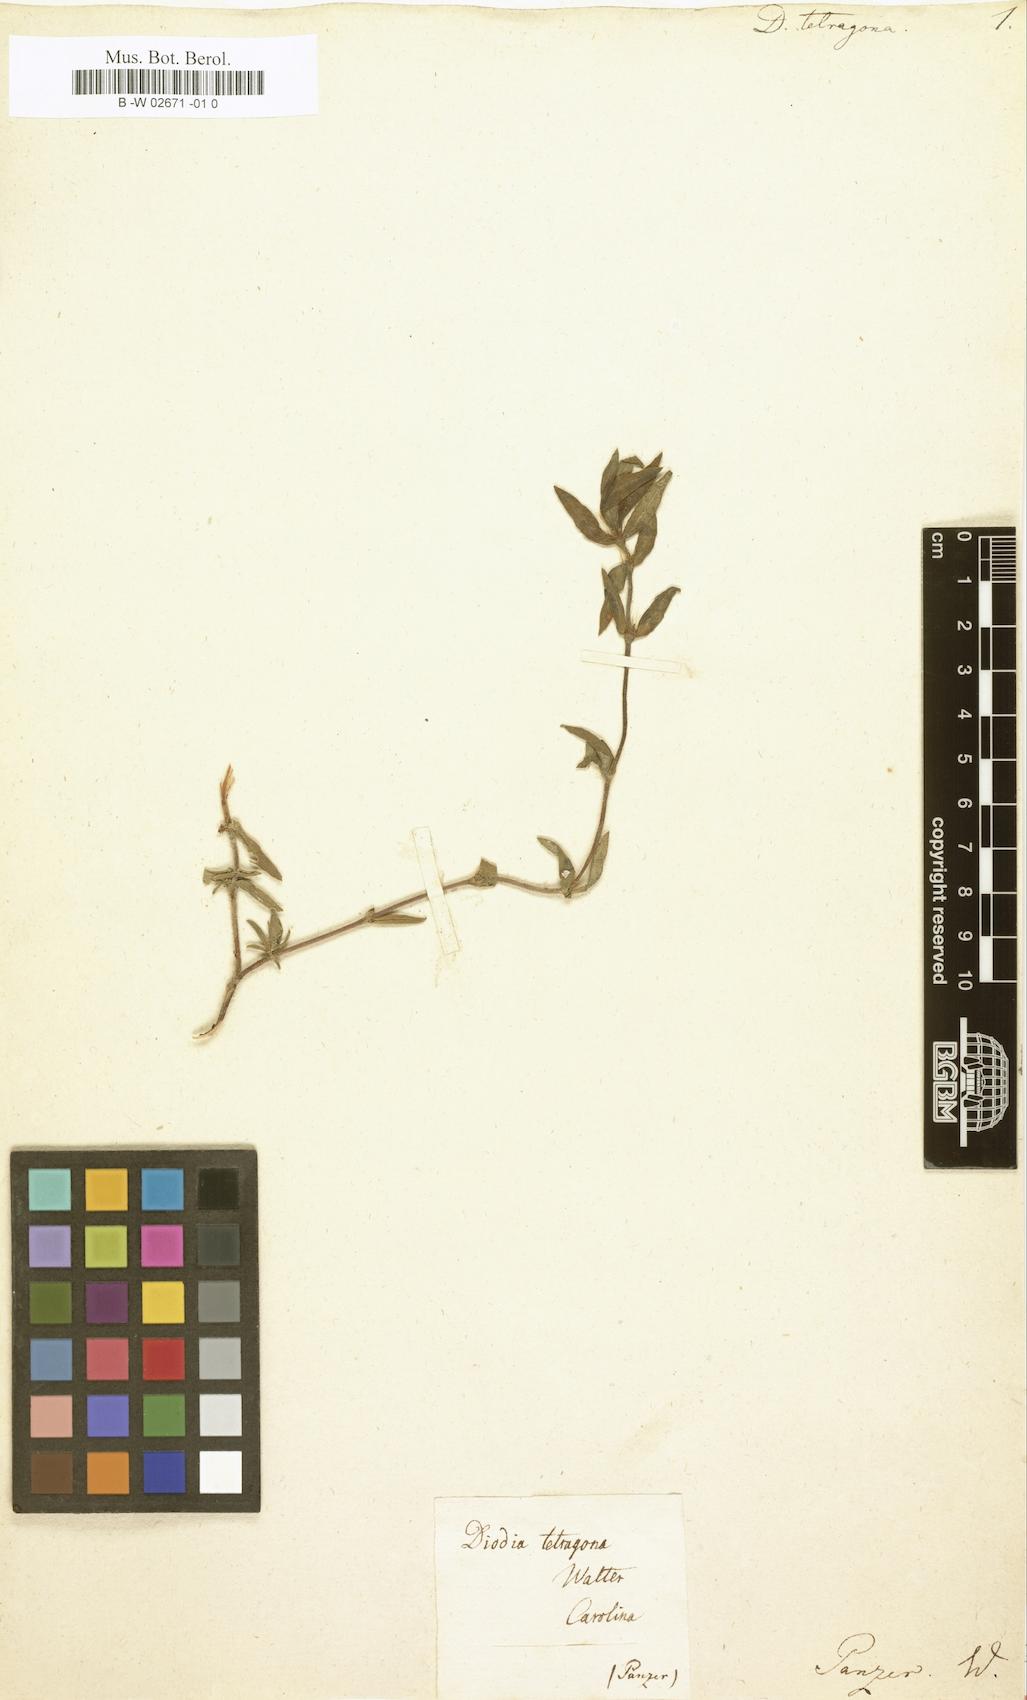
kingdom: Plantae
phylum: Tracheophyta
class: Magnoliopsida
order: Gentianales
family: Rubiaceae
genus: Diodia
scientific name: Diodia virginiana
